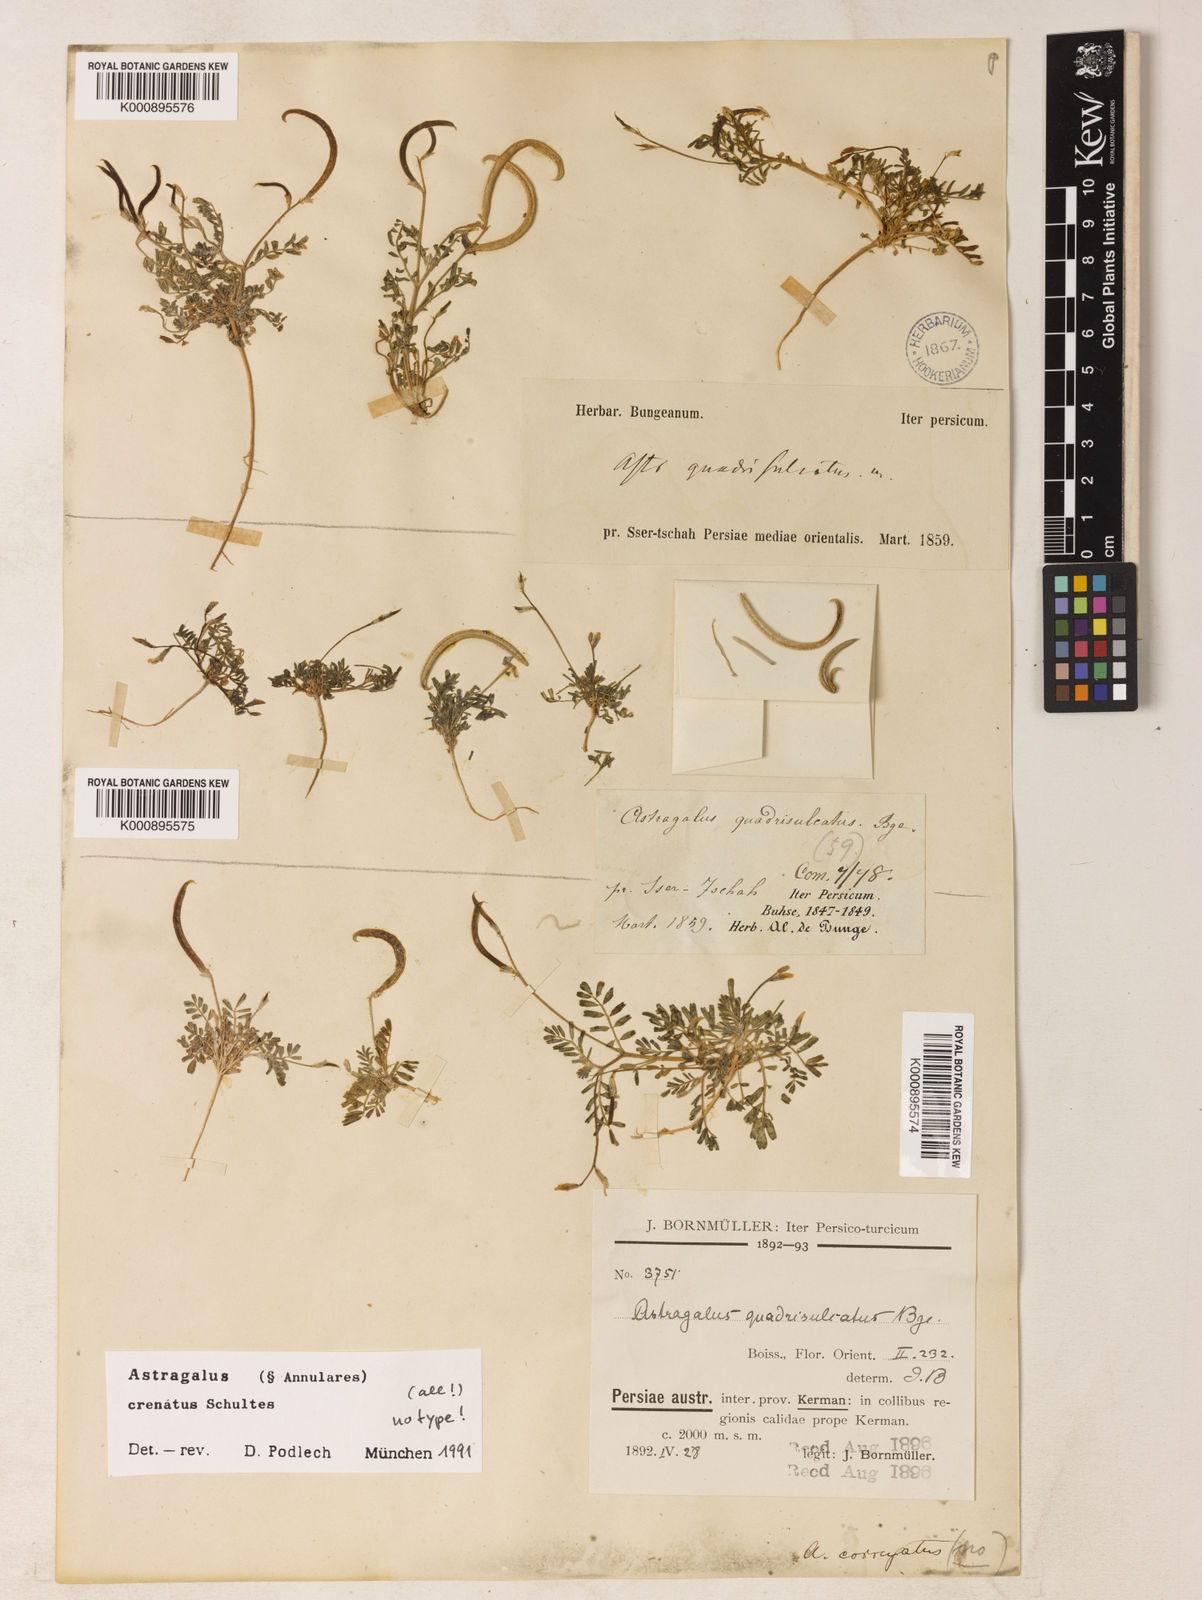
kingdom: Plantae
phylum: Tracheophyta
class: Magnoliopsida
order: Fabales
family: Fabaceae
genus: Astragalus
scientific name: Astragalus
